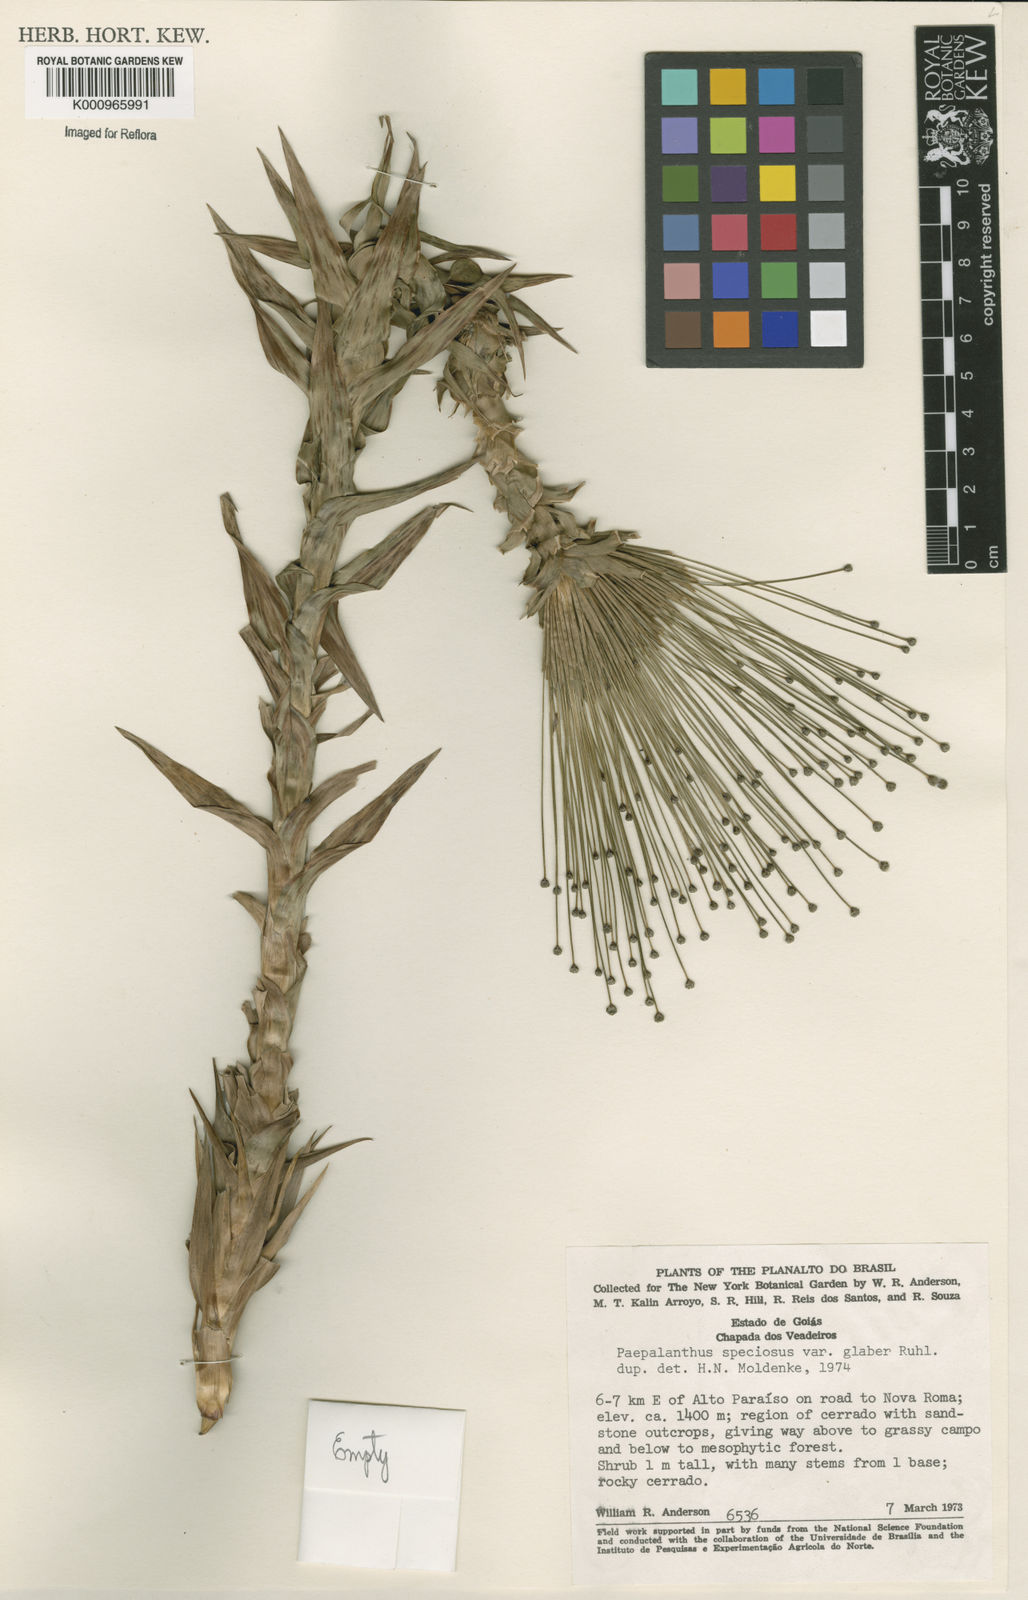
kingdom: Plantae
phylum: Tracheophyta
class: Liliopsida
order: Poales
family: Eriocaulaceae
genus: Paepalanthus
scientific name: Paepalanthus erectifolius
